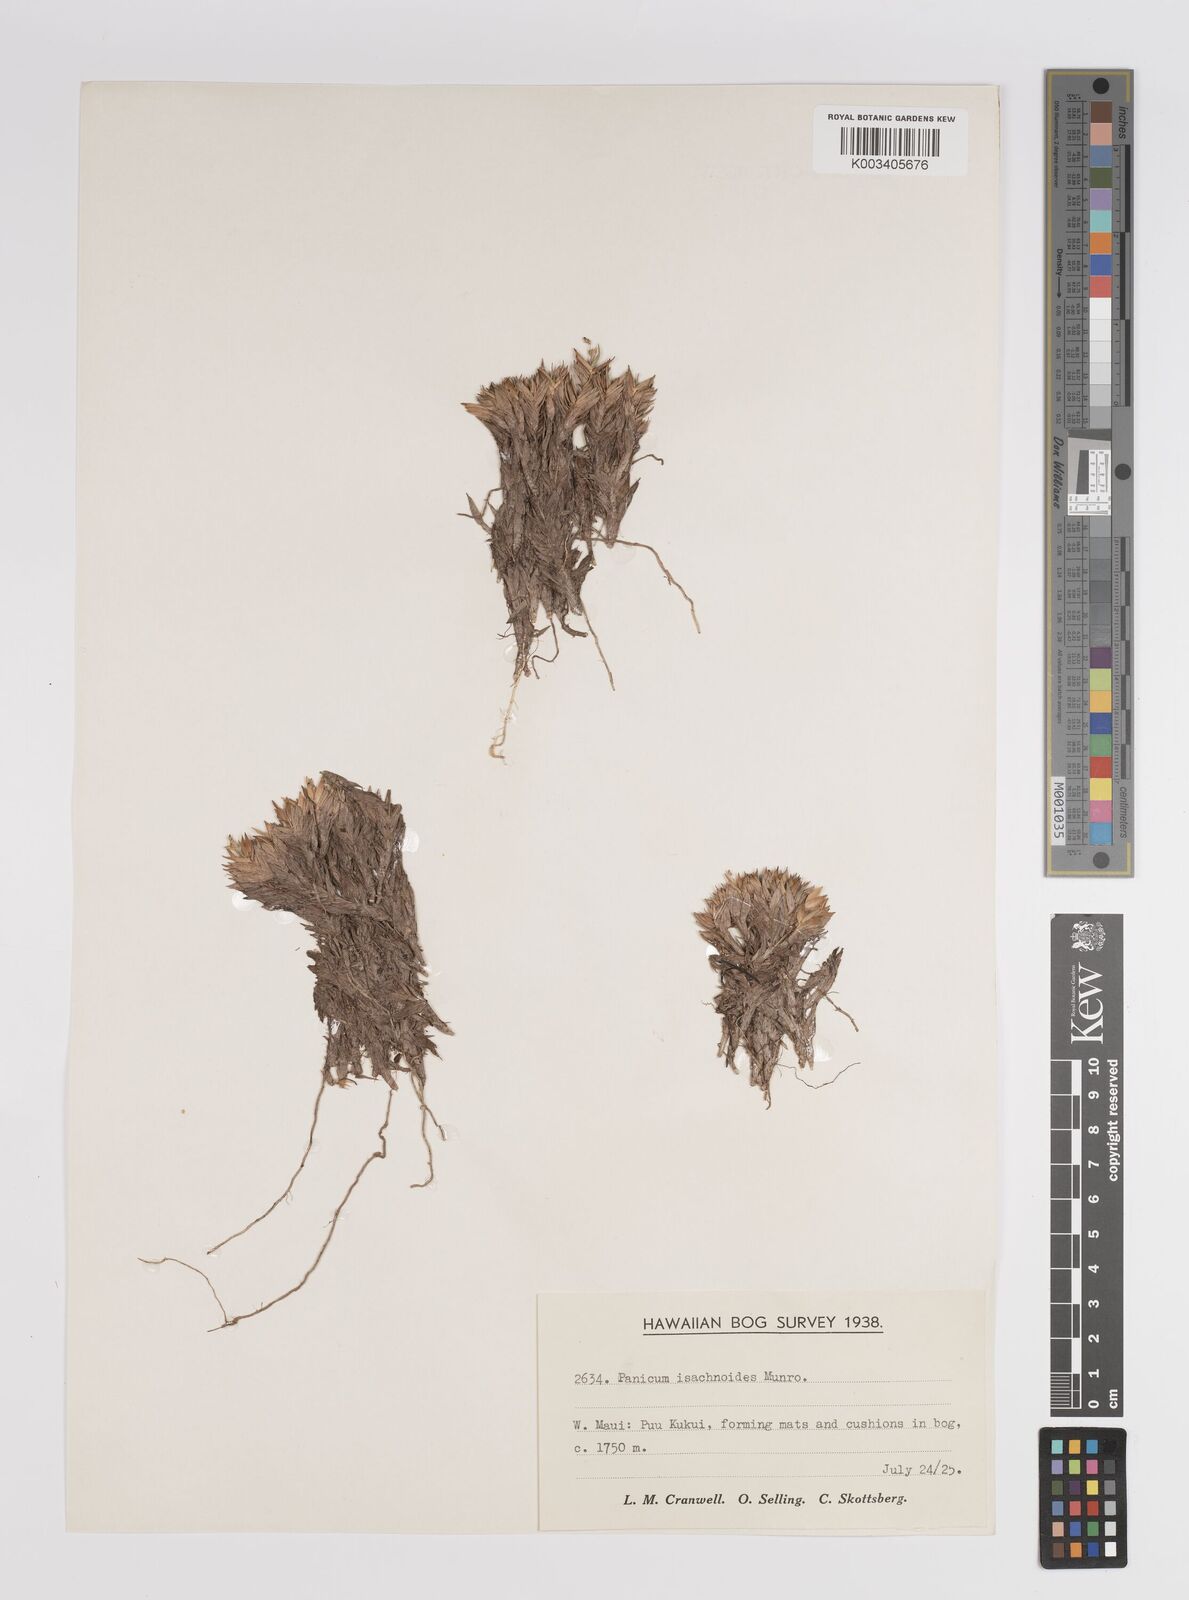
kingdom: Plantae
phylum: Tracheophyta
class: Liliopsida
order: Poales
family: Poaceae
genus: Panicum
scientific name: Panicum
